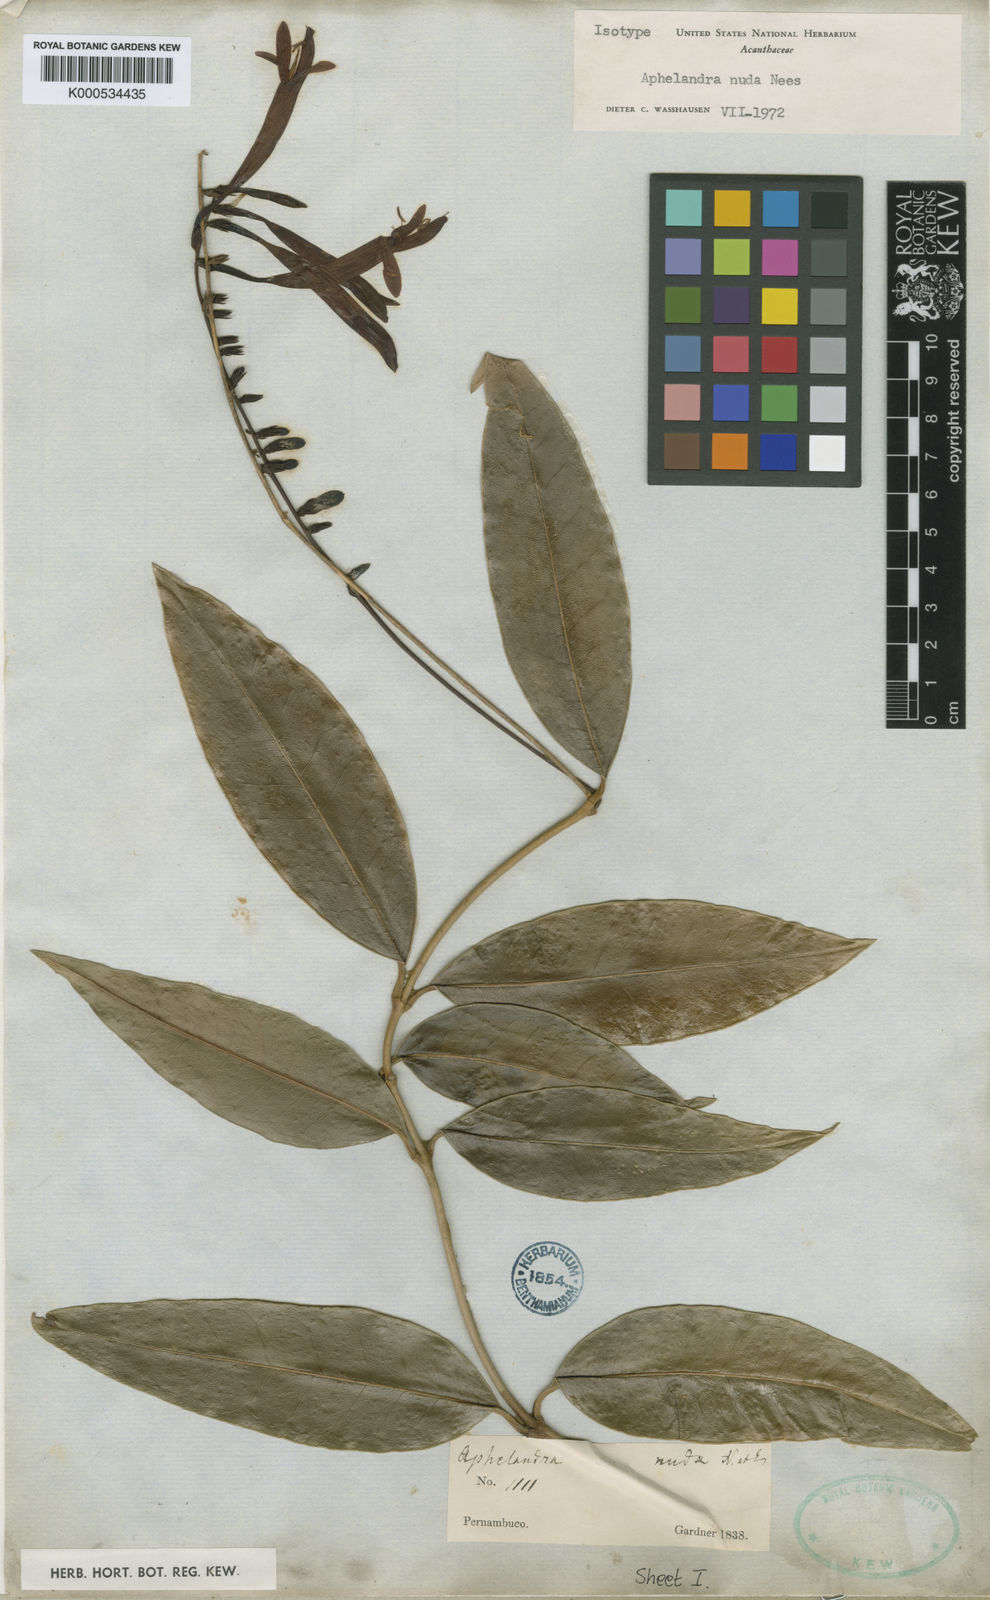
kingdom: Plantae
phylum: Tracheophyta
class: Magnoliopsida
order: Lamiales
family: Acanthaceae
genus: Aphelandra
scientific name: Aphelandra nuda
